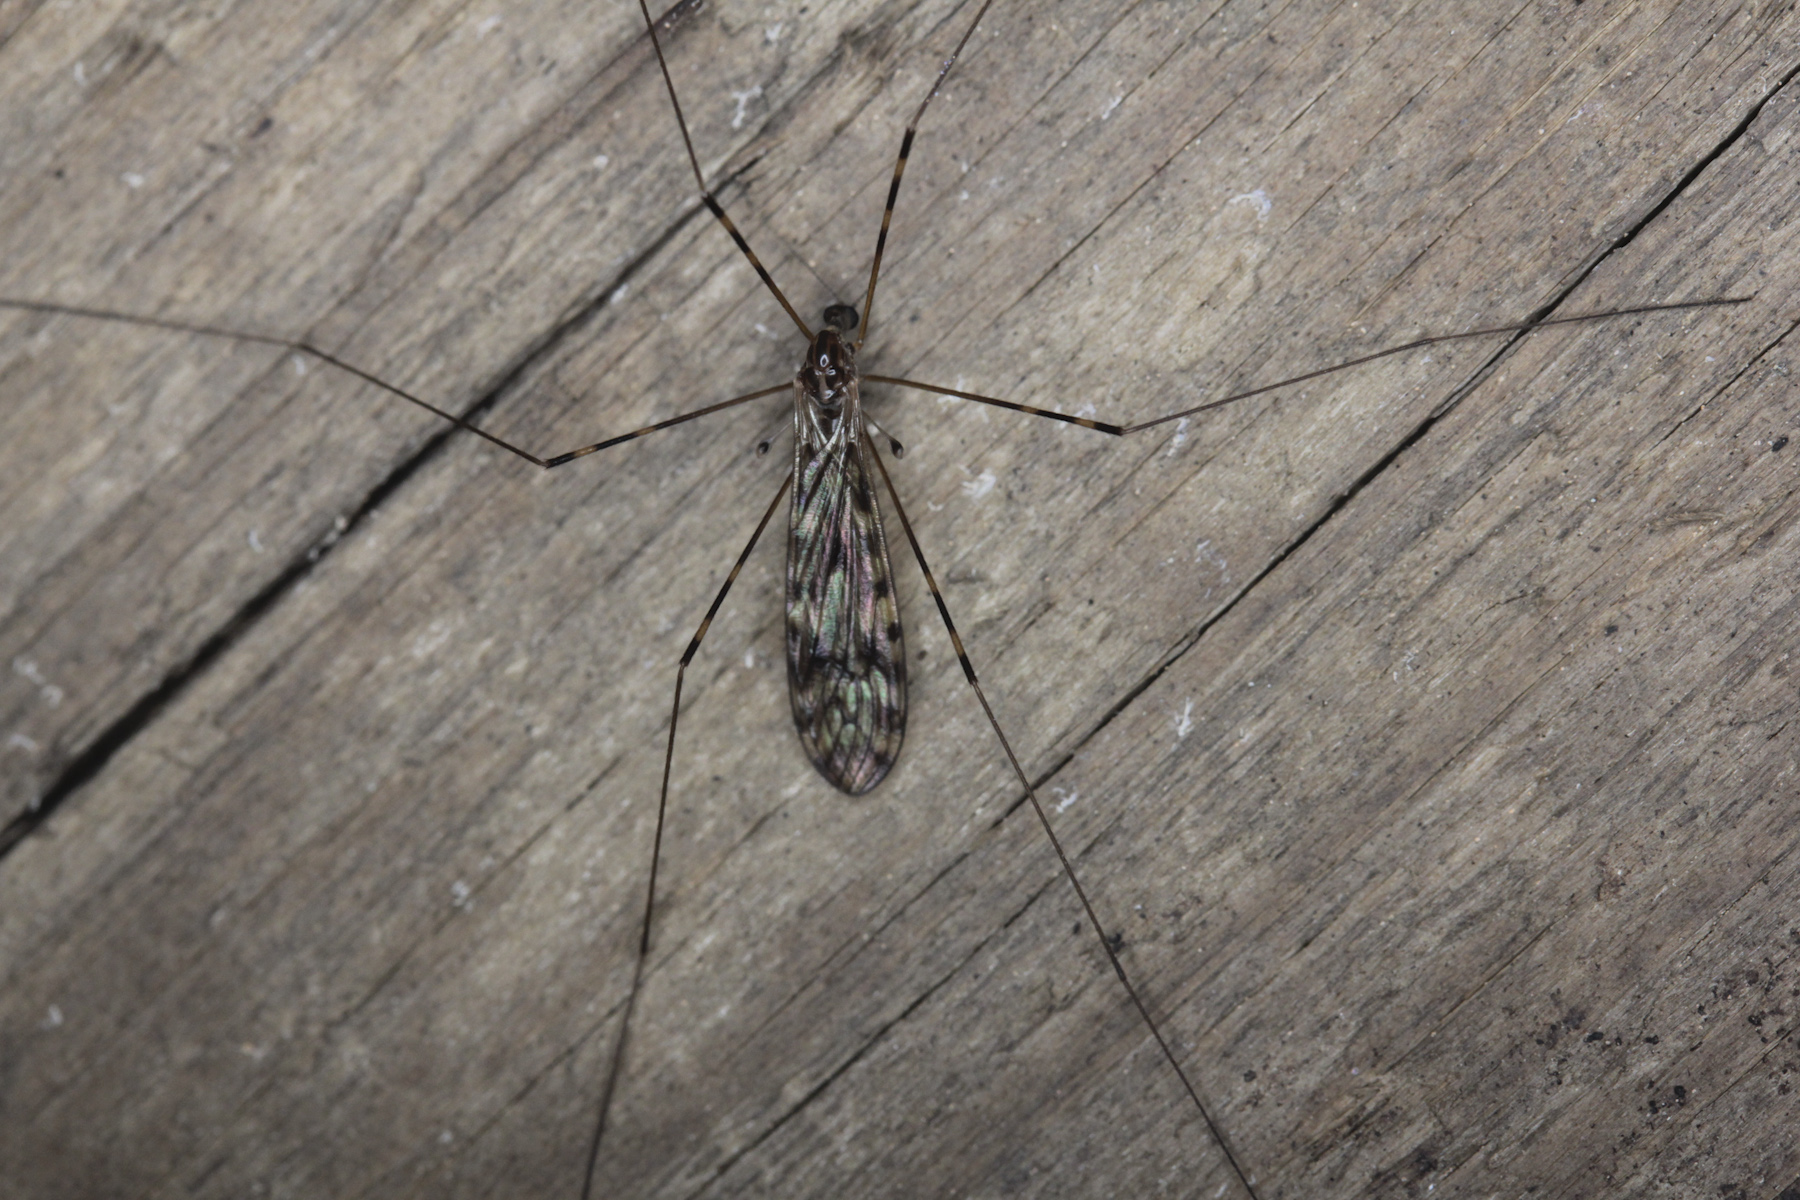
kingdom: Animalia
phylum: Arthropoda
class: Insecta
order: Diptera
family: Limoniidae
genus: Limonia
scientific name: Limonia nubeculosa
